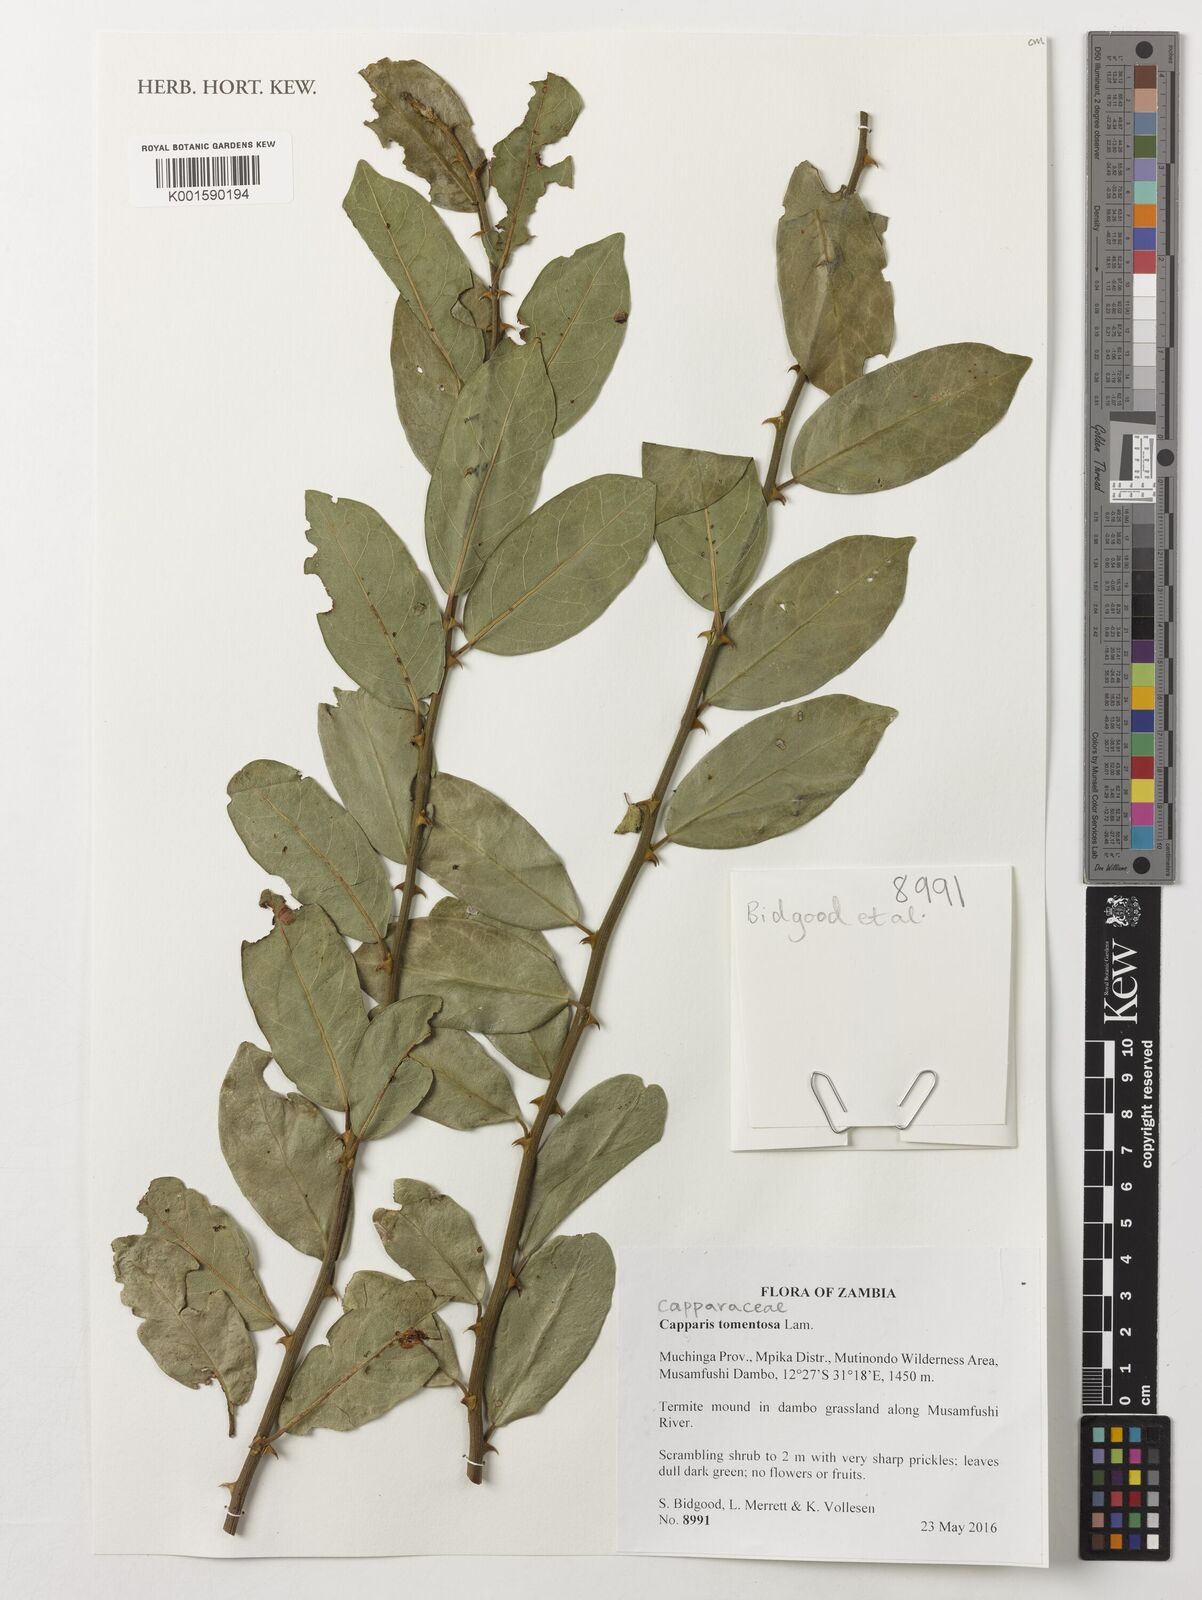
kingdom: Plantae
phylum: Tracheophyta
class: Magnoliopsida
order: Brassicales
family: Capparaceae
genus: Capparis
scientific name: Capparis tomentosa
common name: African caper
